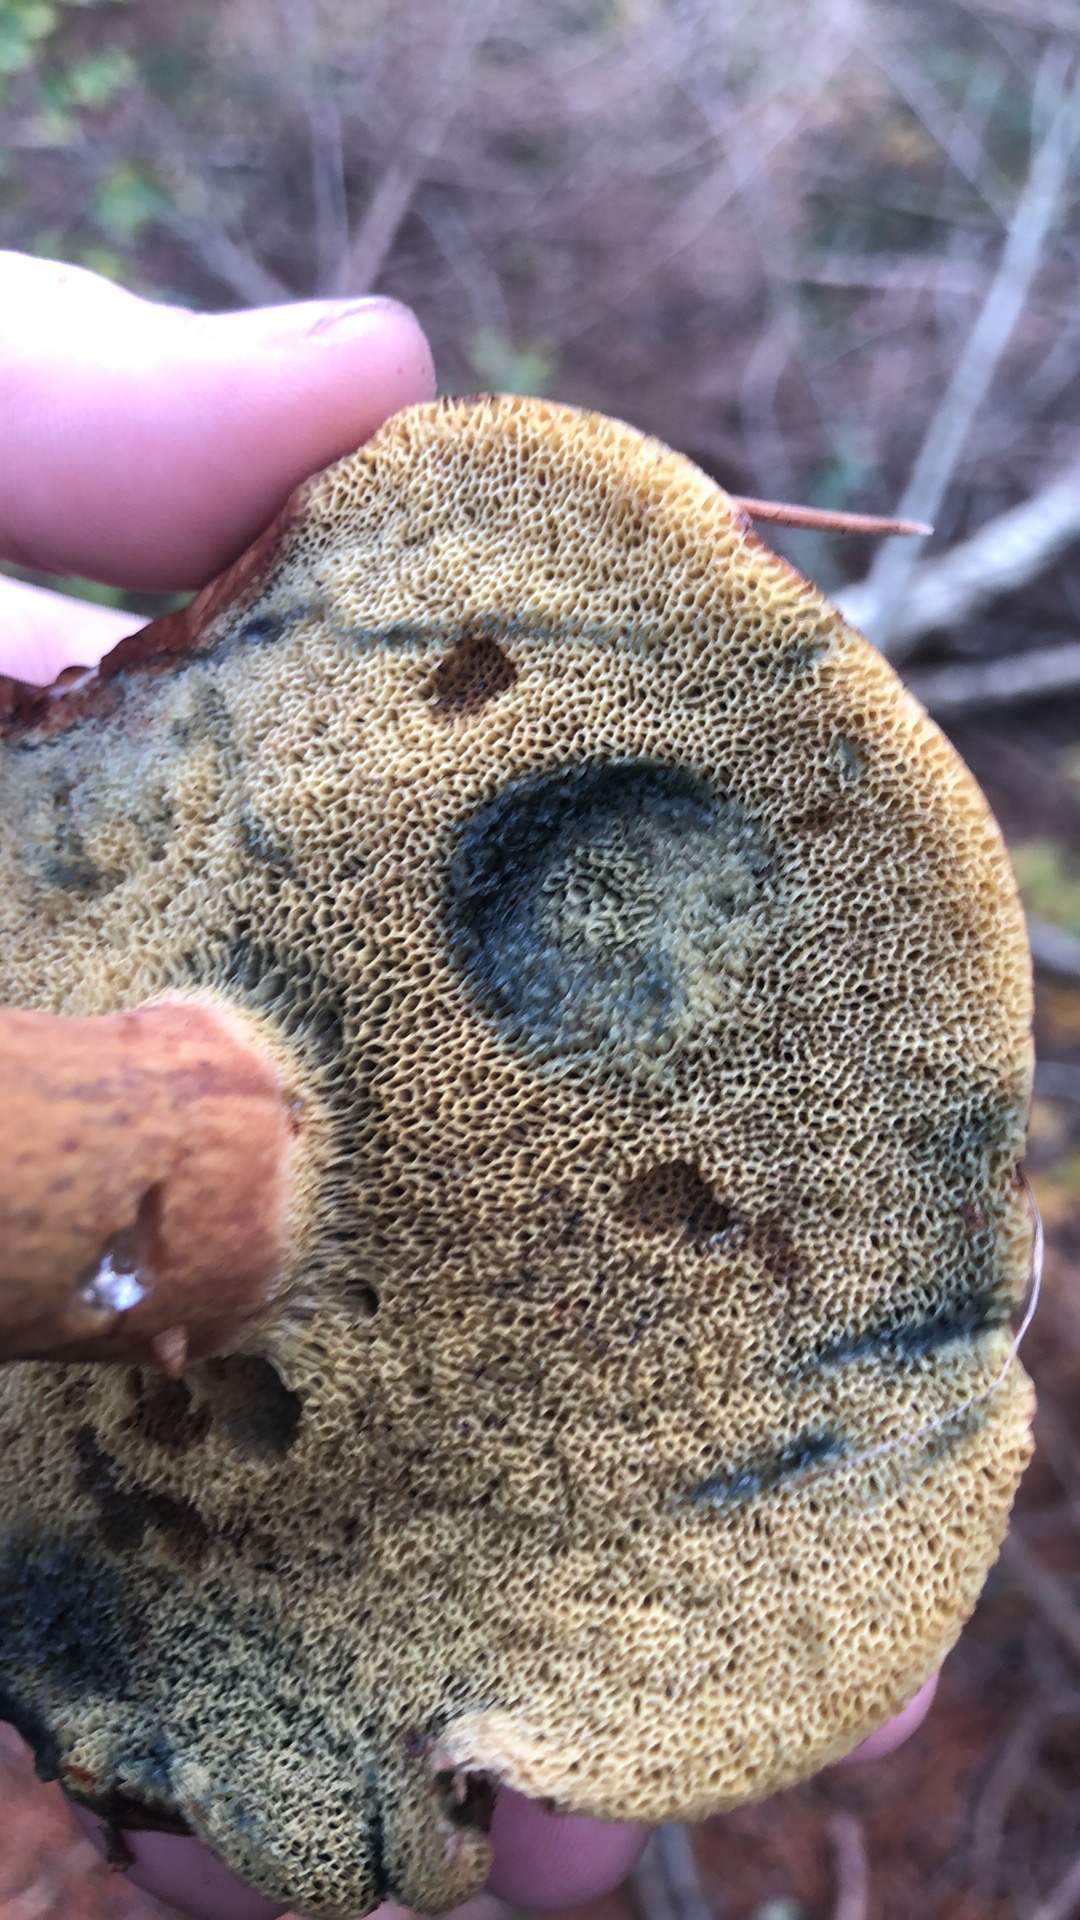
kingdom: Fungi
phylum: Basidiomycota
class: Agaricomycetes
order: Boletales
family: Boletaceae
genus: Imleria
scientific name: Imleria badia
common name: brunstokket rørhat
